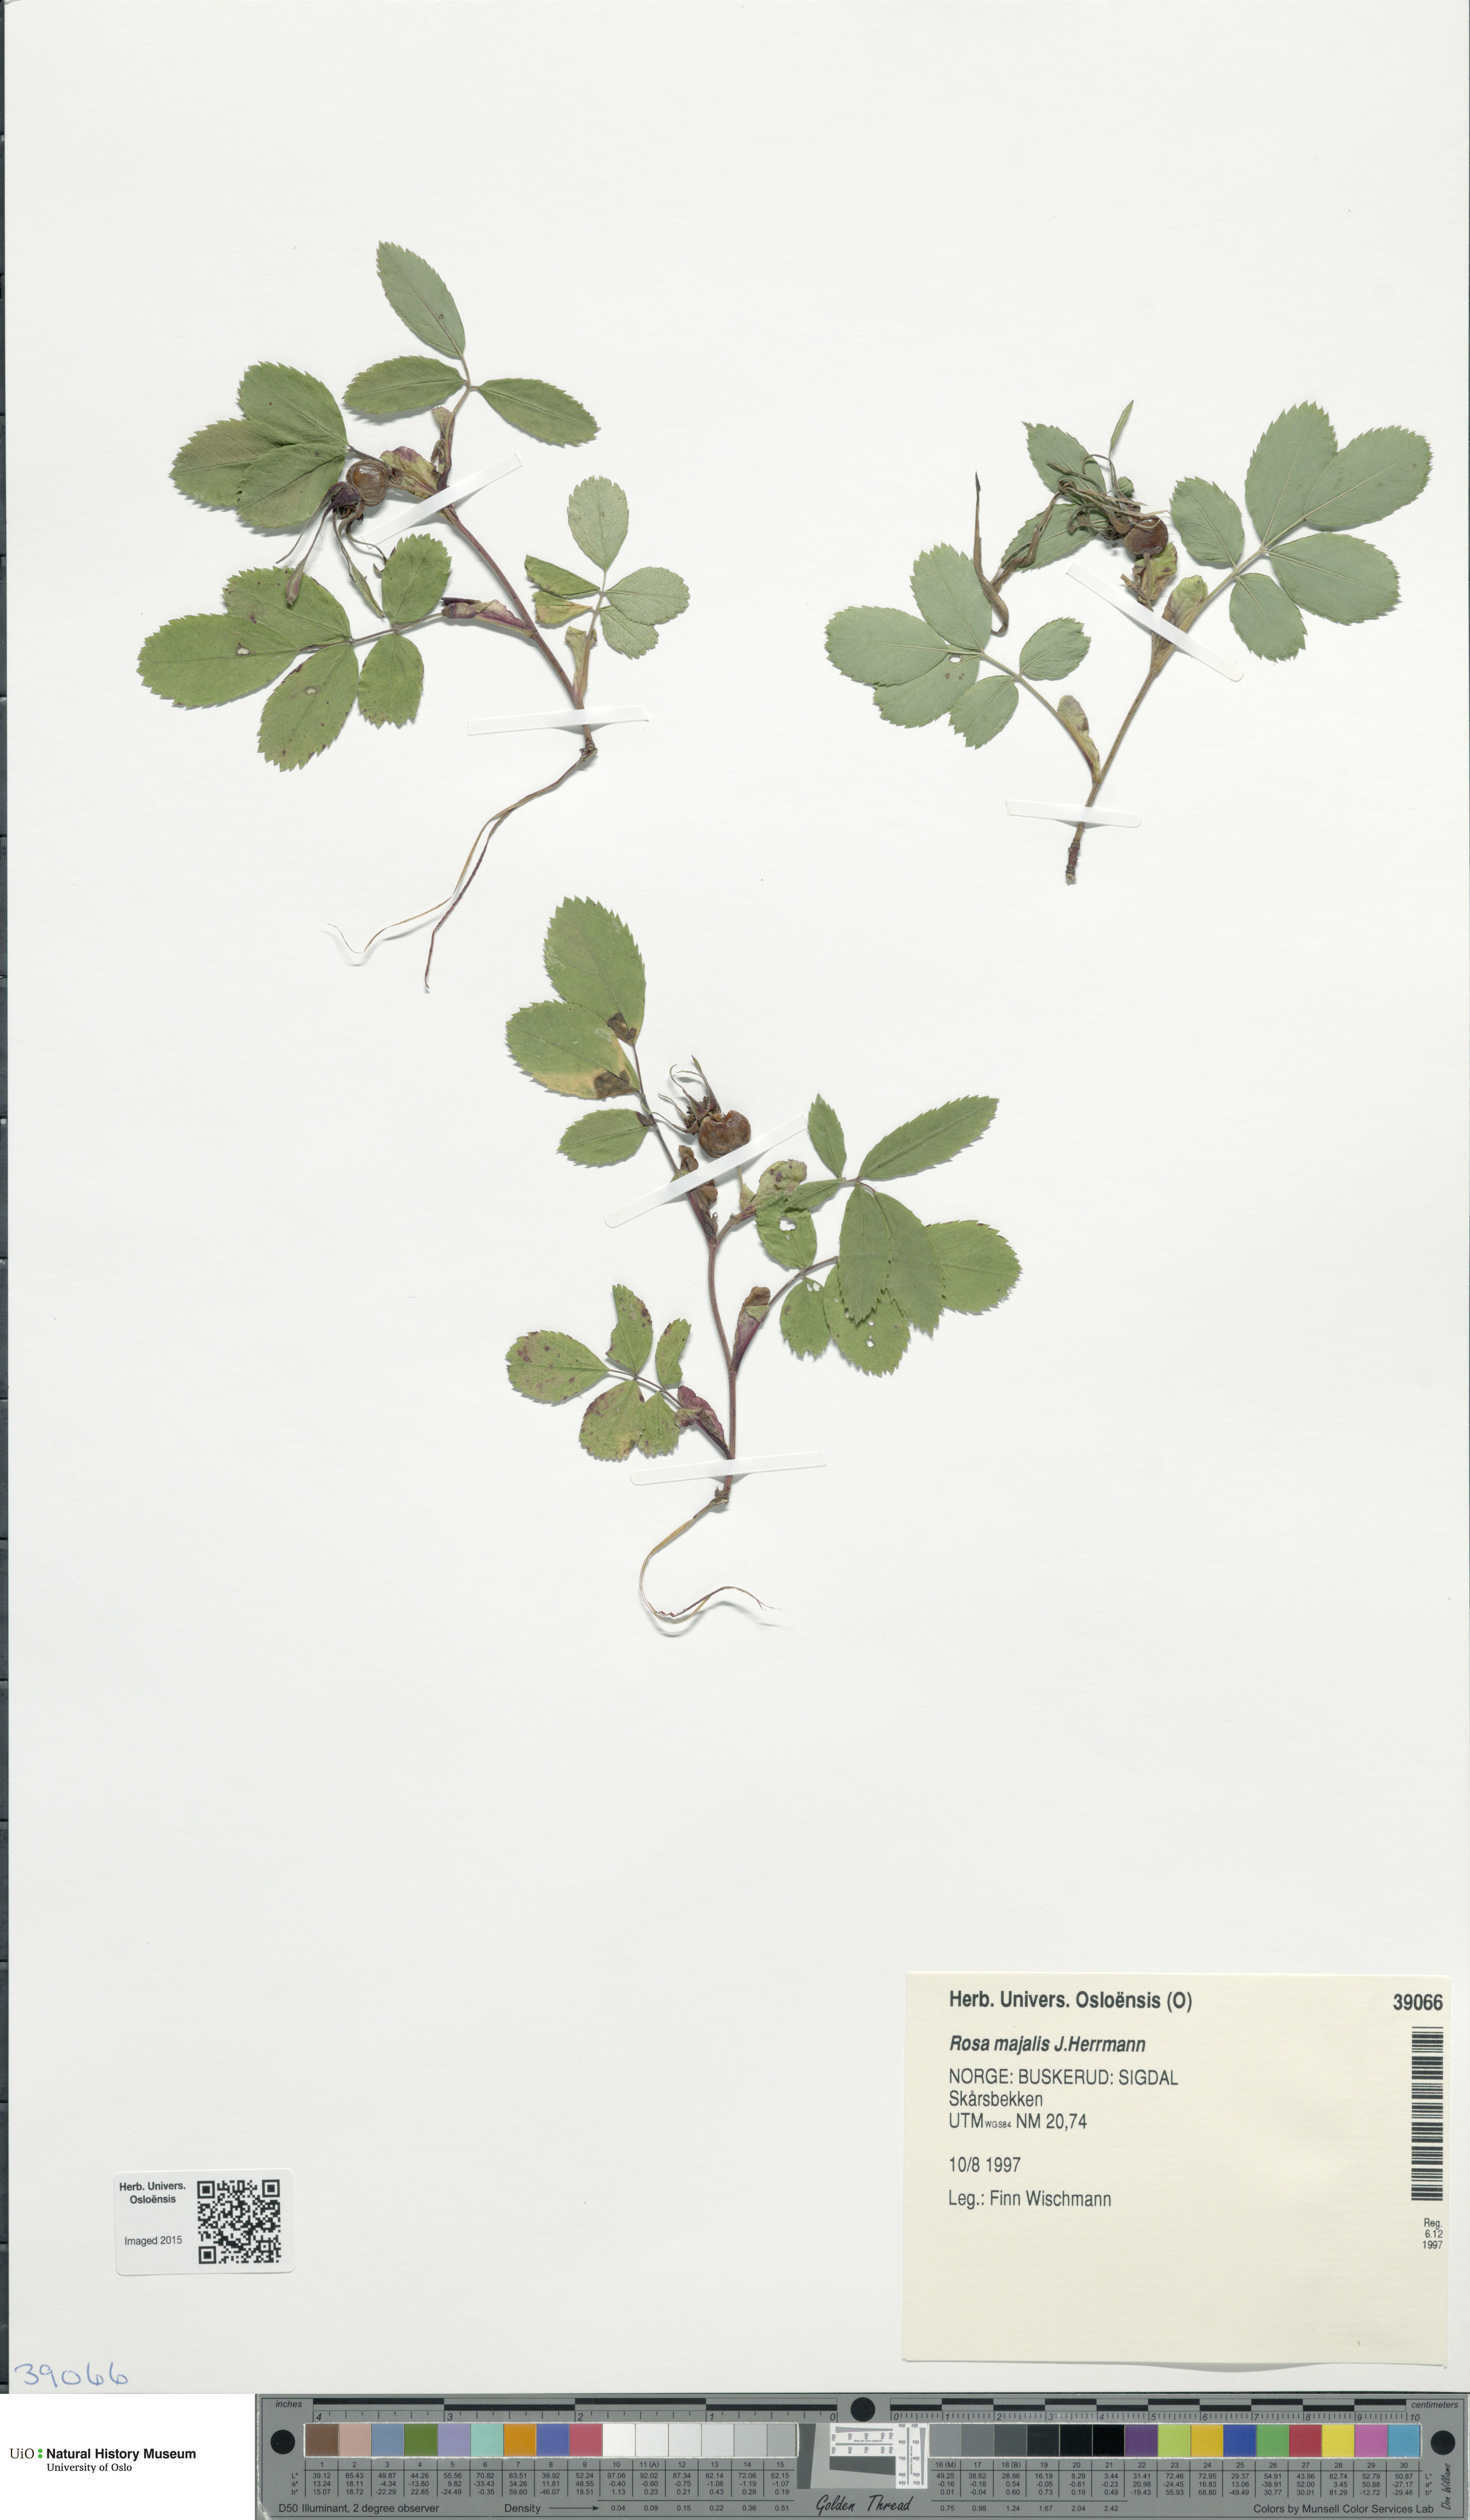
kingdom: Plantae
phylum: Tracheophyta
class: Magnoliopsida
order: Rosales
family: Rosaceae
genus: Rosa
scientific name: Rosa majalis
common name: Cinnamon rose
